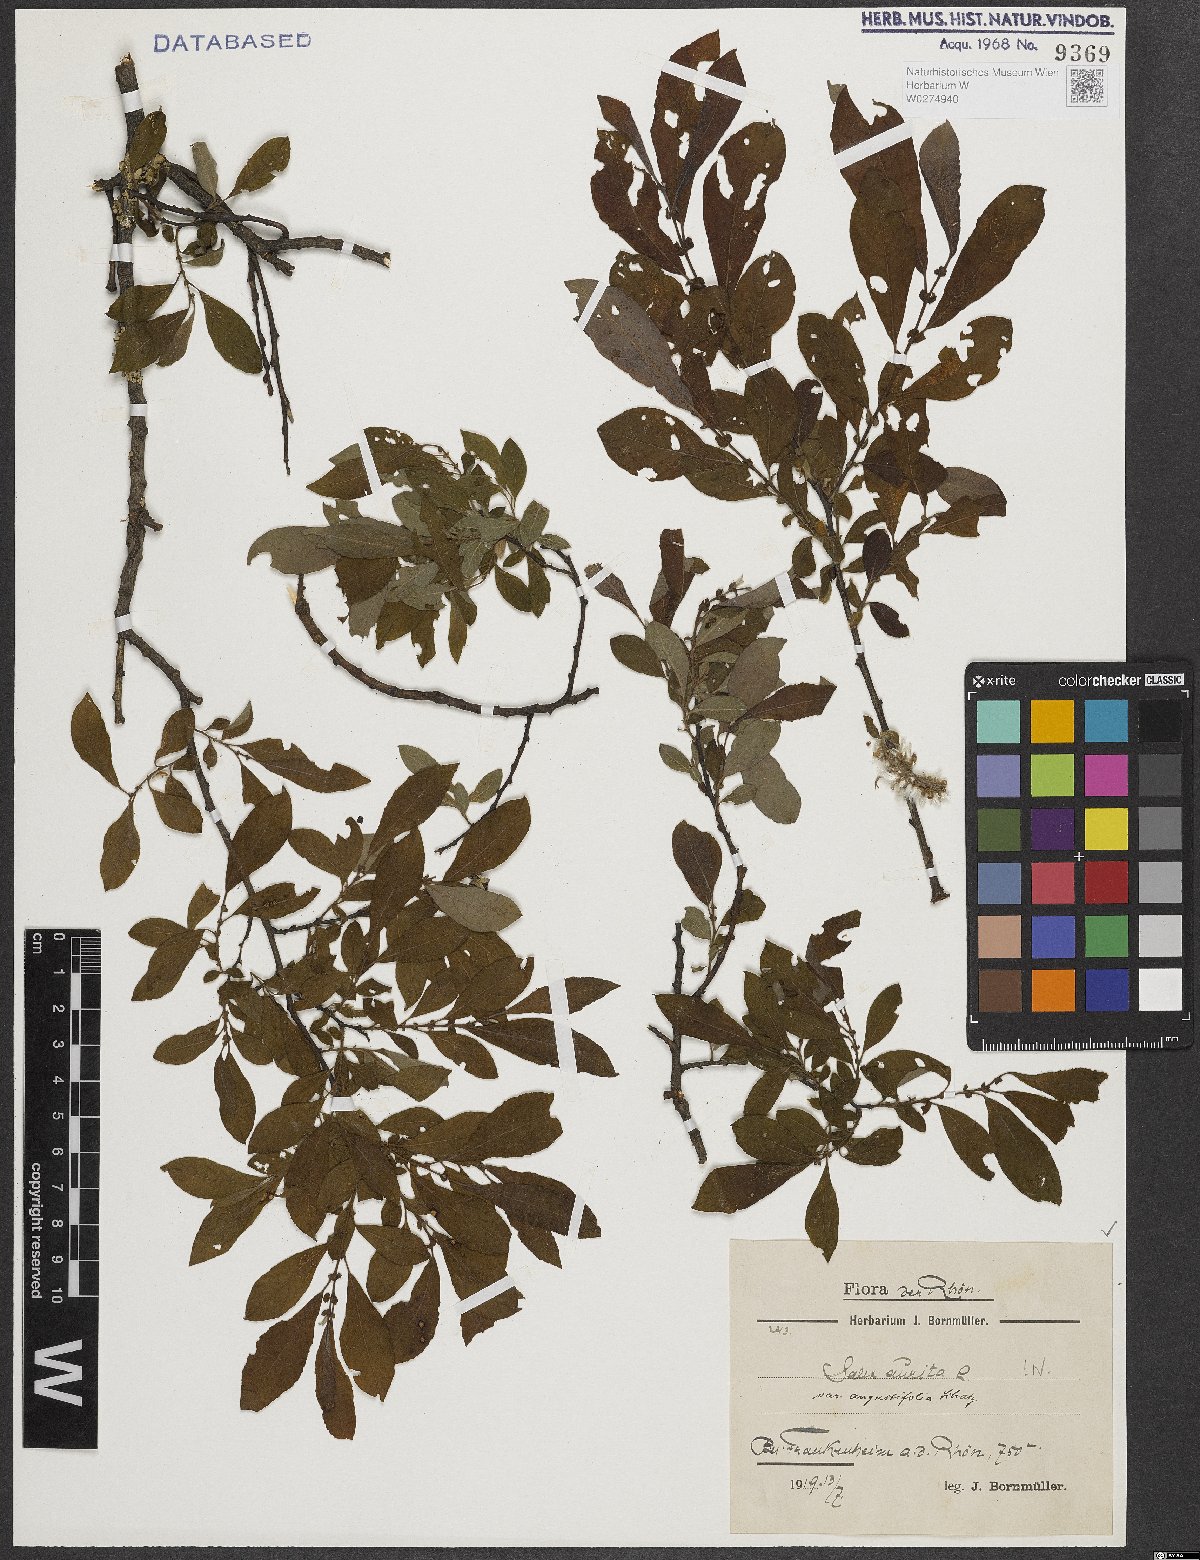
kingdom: Plantae
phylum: Tracheophyta
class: Magnoliopsida
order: Malpighiales
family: Salicaceae
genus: Salix
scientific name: Salix aurita
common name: Eared willow
